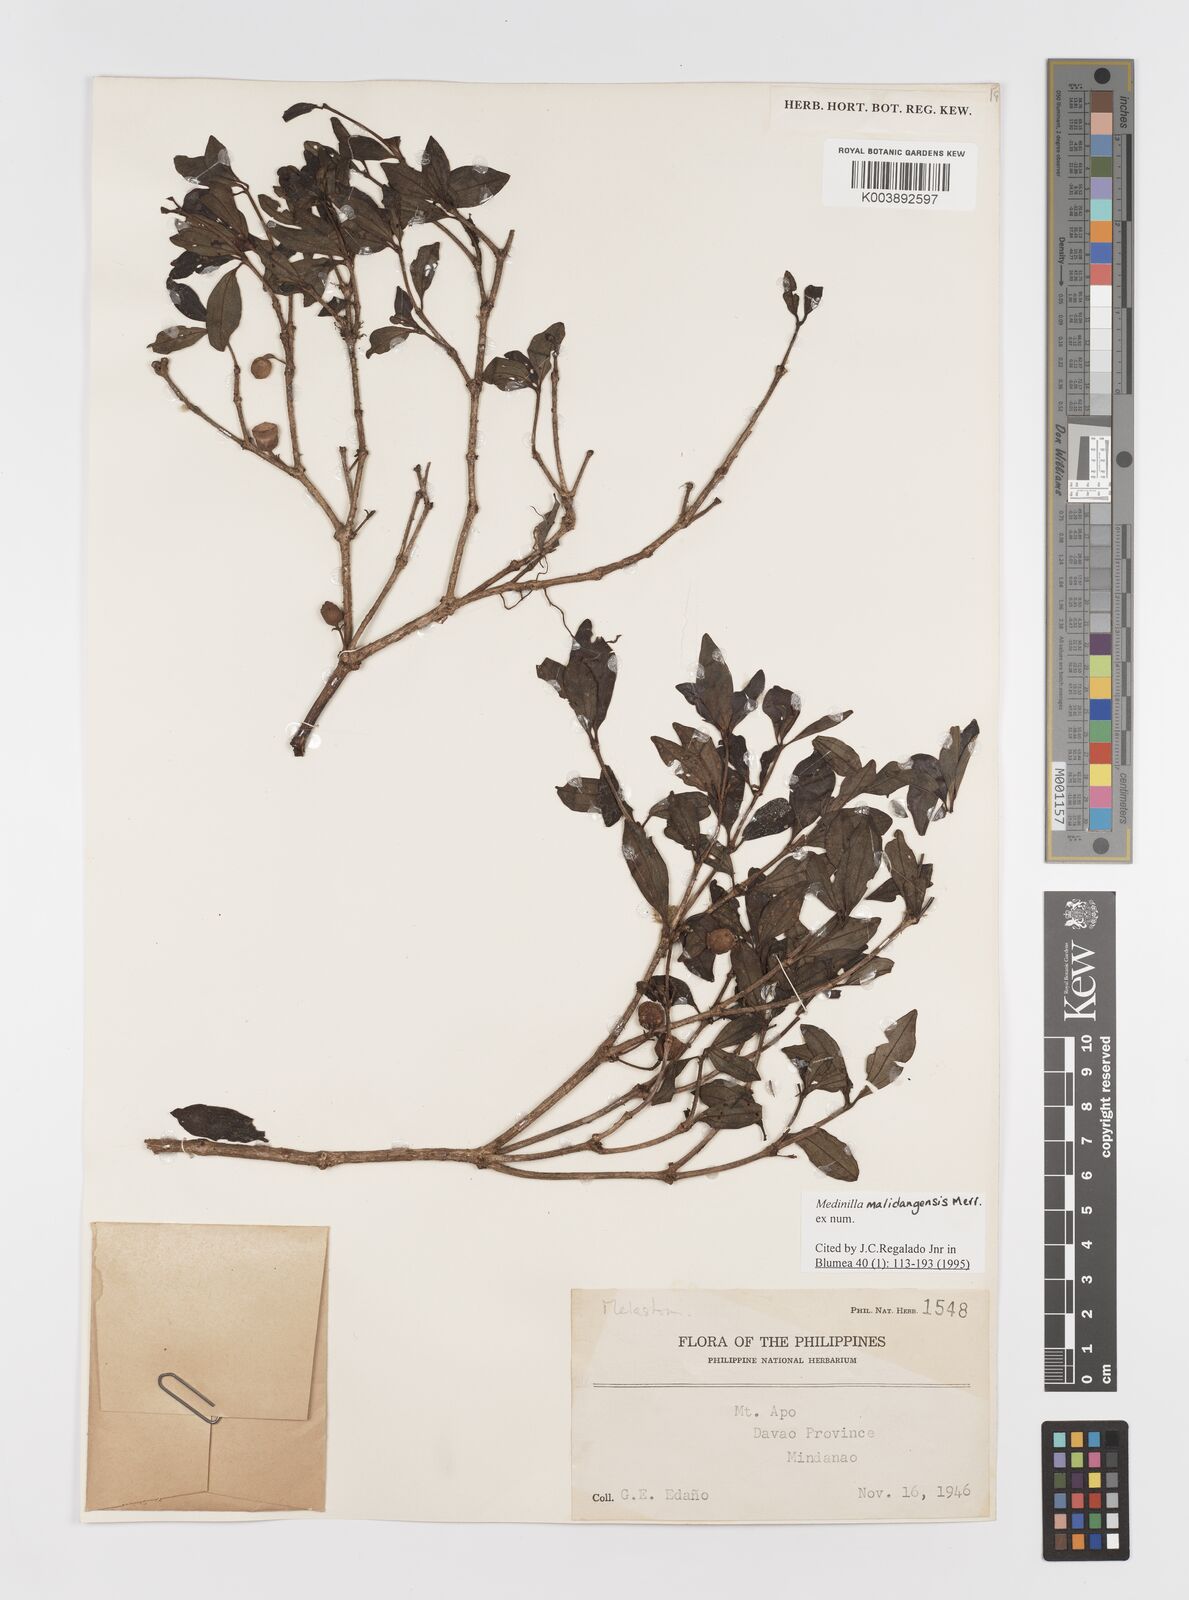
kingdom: Plantae
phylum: Tracheophyta
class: Magnoliopsida
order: Myrtales
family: Melastomataceae
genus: Medinilla
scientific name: Medinilla malindangensis
